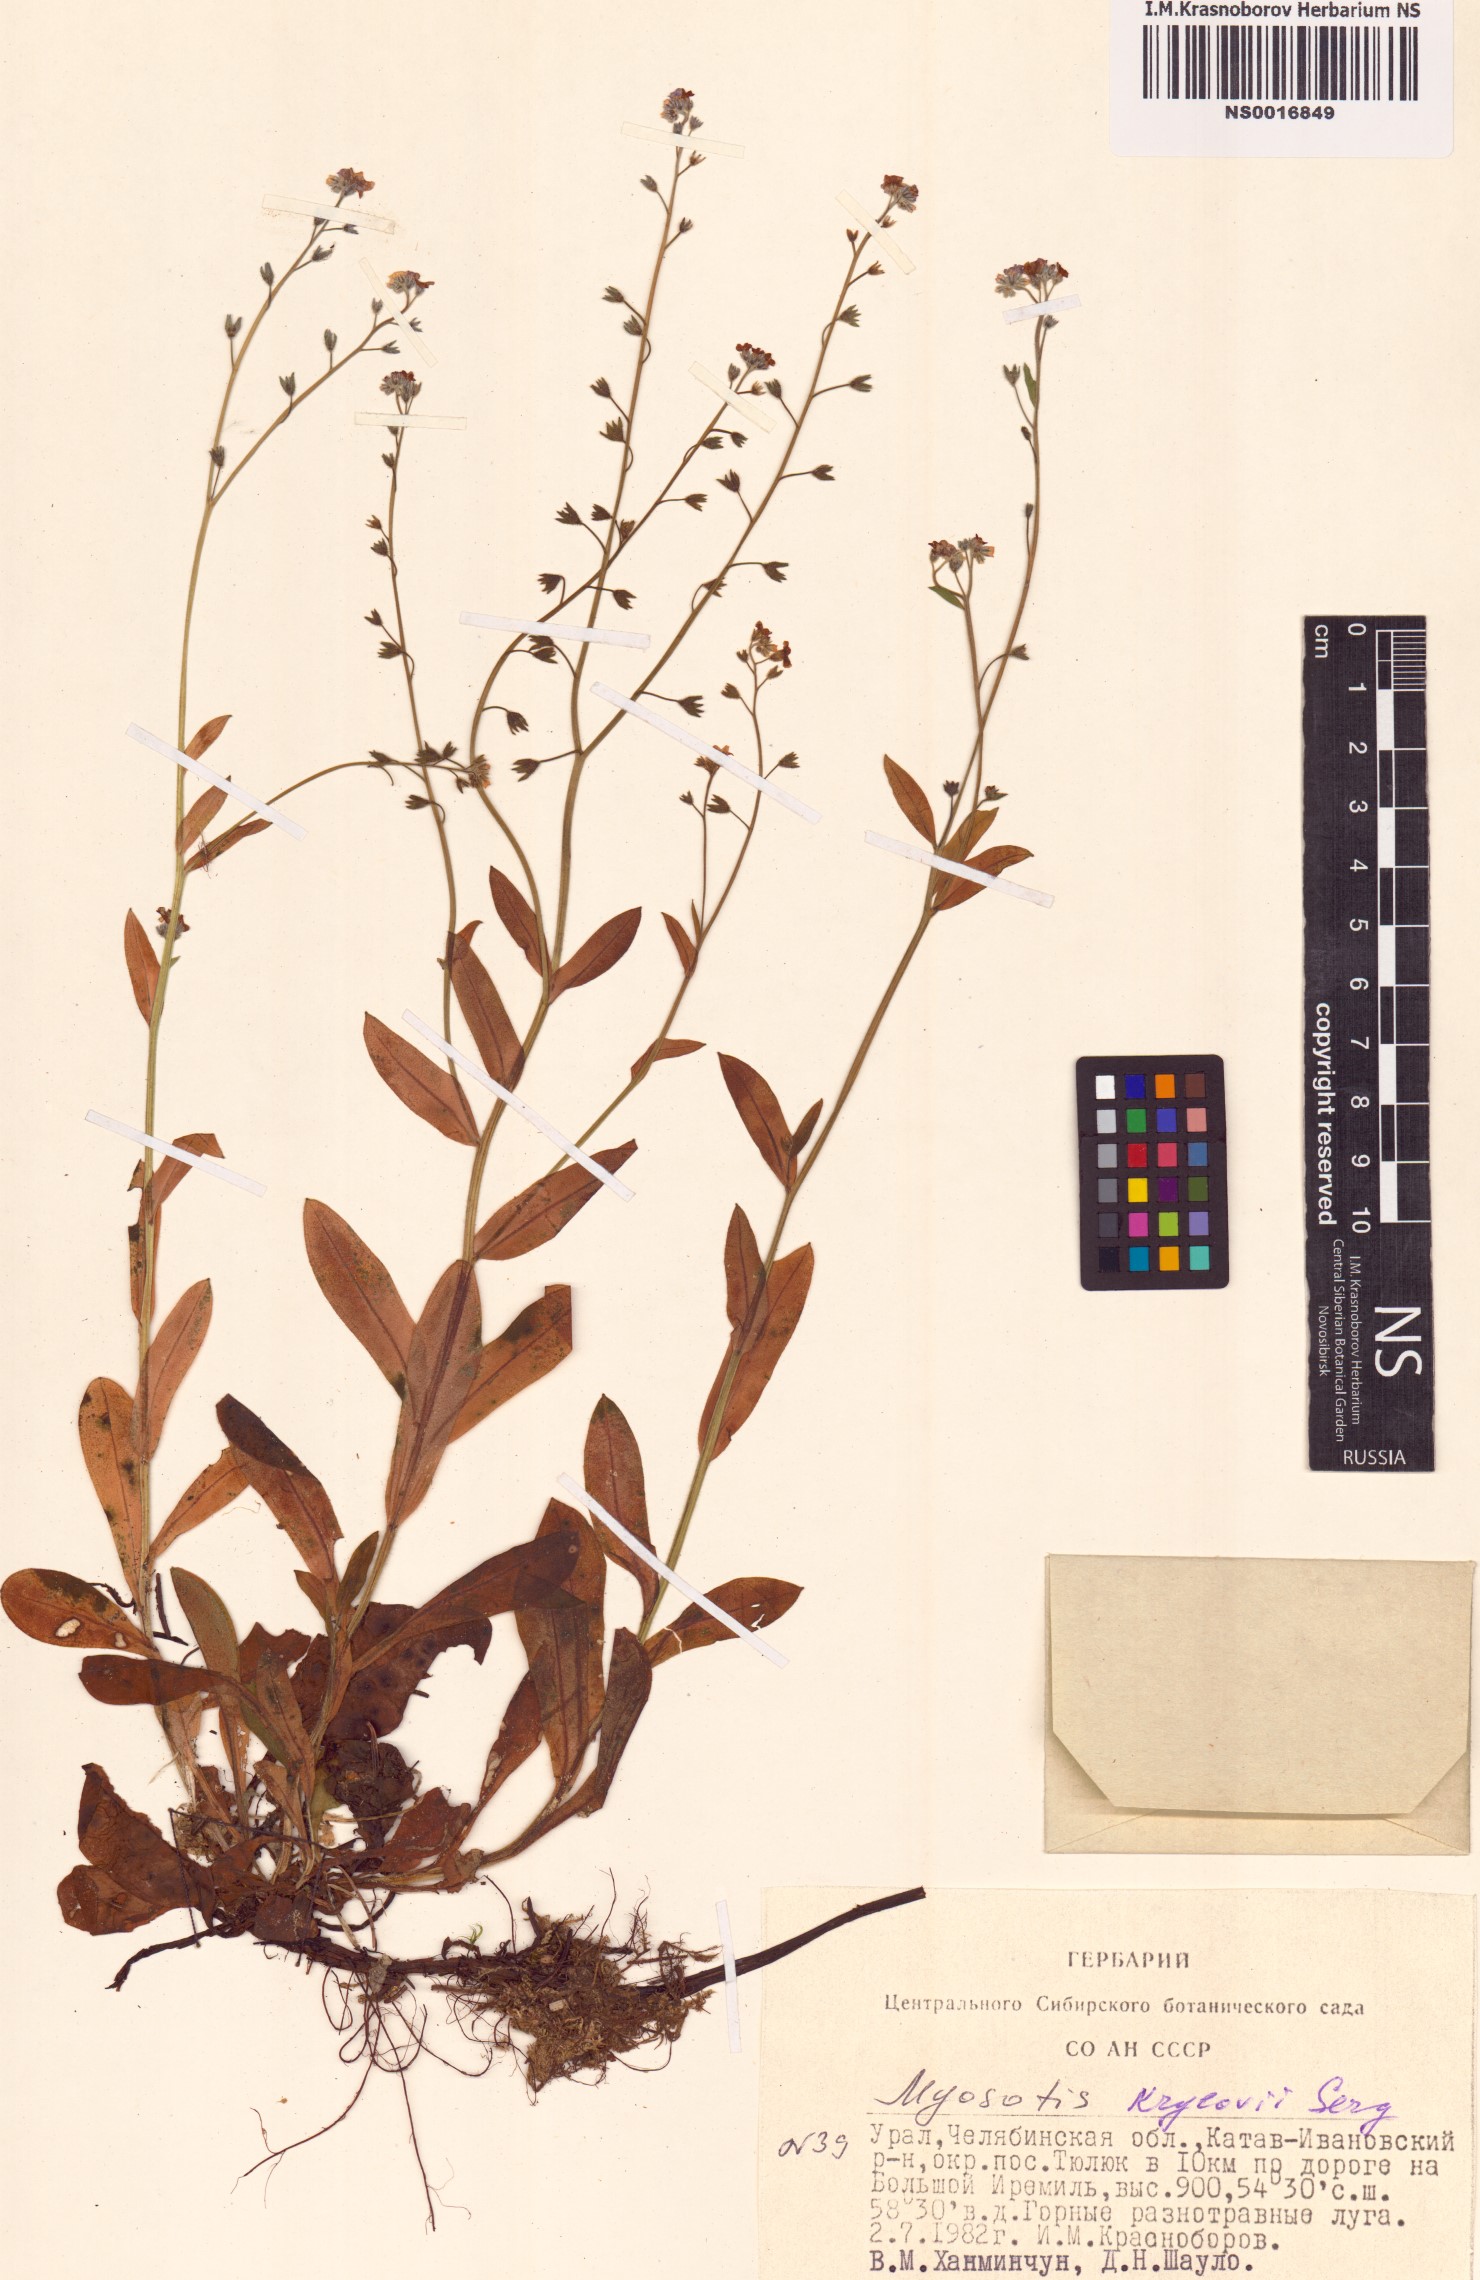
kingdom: Plantae
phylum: Tracheophyta
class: Magnoliopsida
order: Boraginales
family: Boraginaceae
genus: Myosotis
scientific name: Myosotis krylovii
